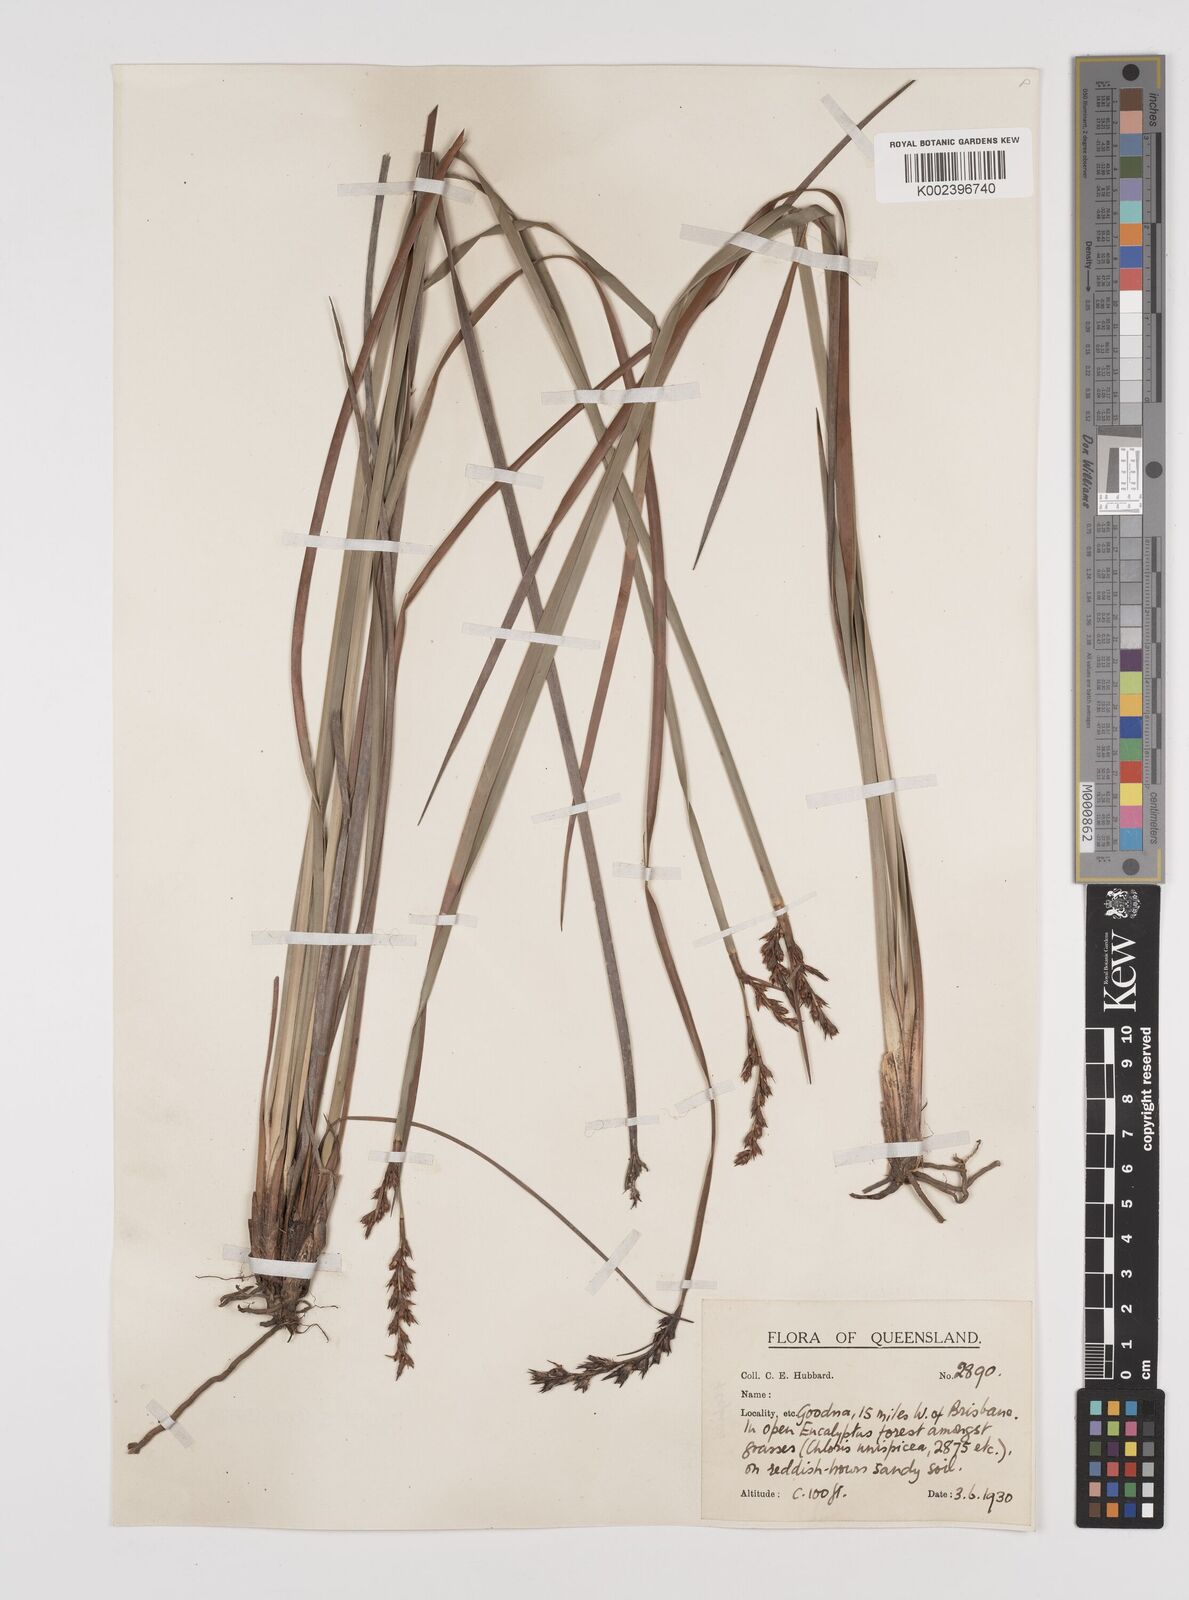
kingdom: Plantae
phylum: Tracheophyta
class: Liliopsida
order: Poales
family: Cyperaceae
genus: Lepidosperma
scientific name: Lepidosperma laterale
